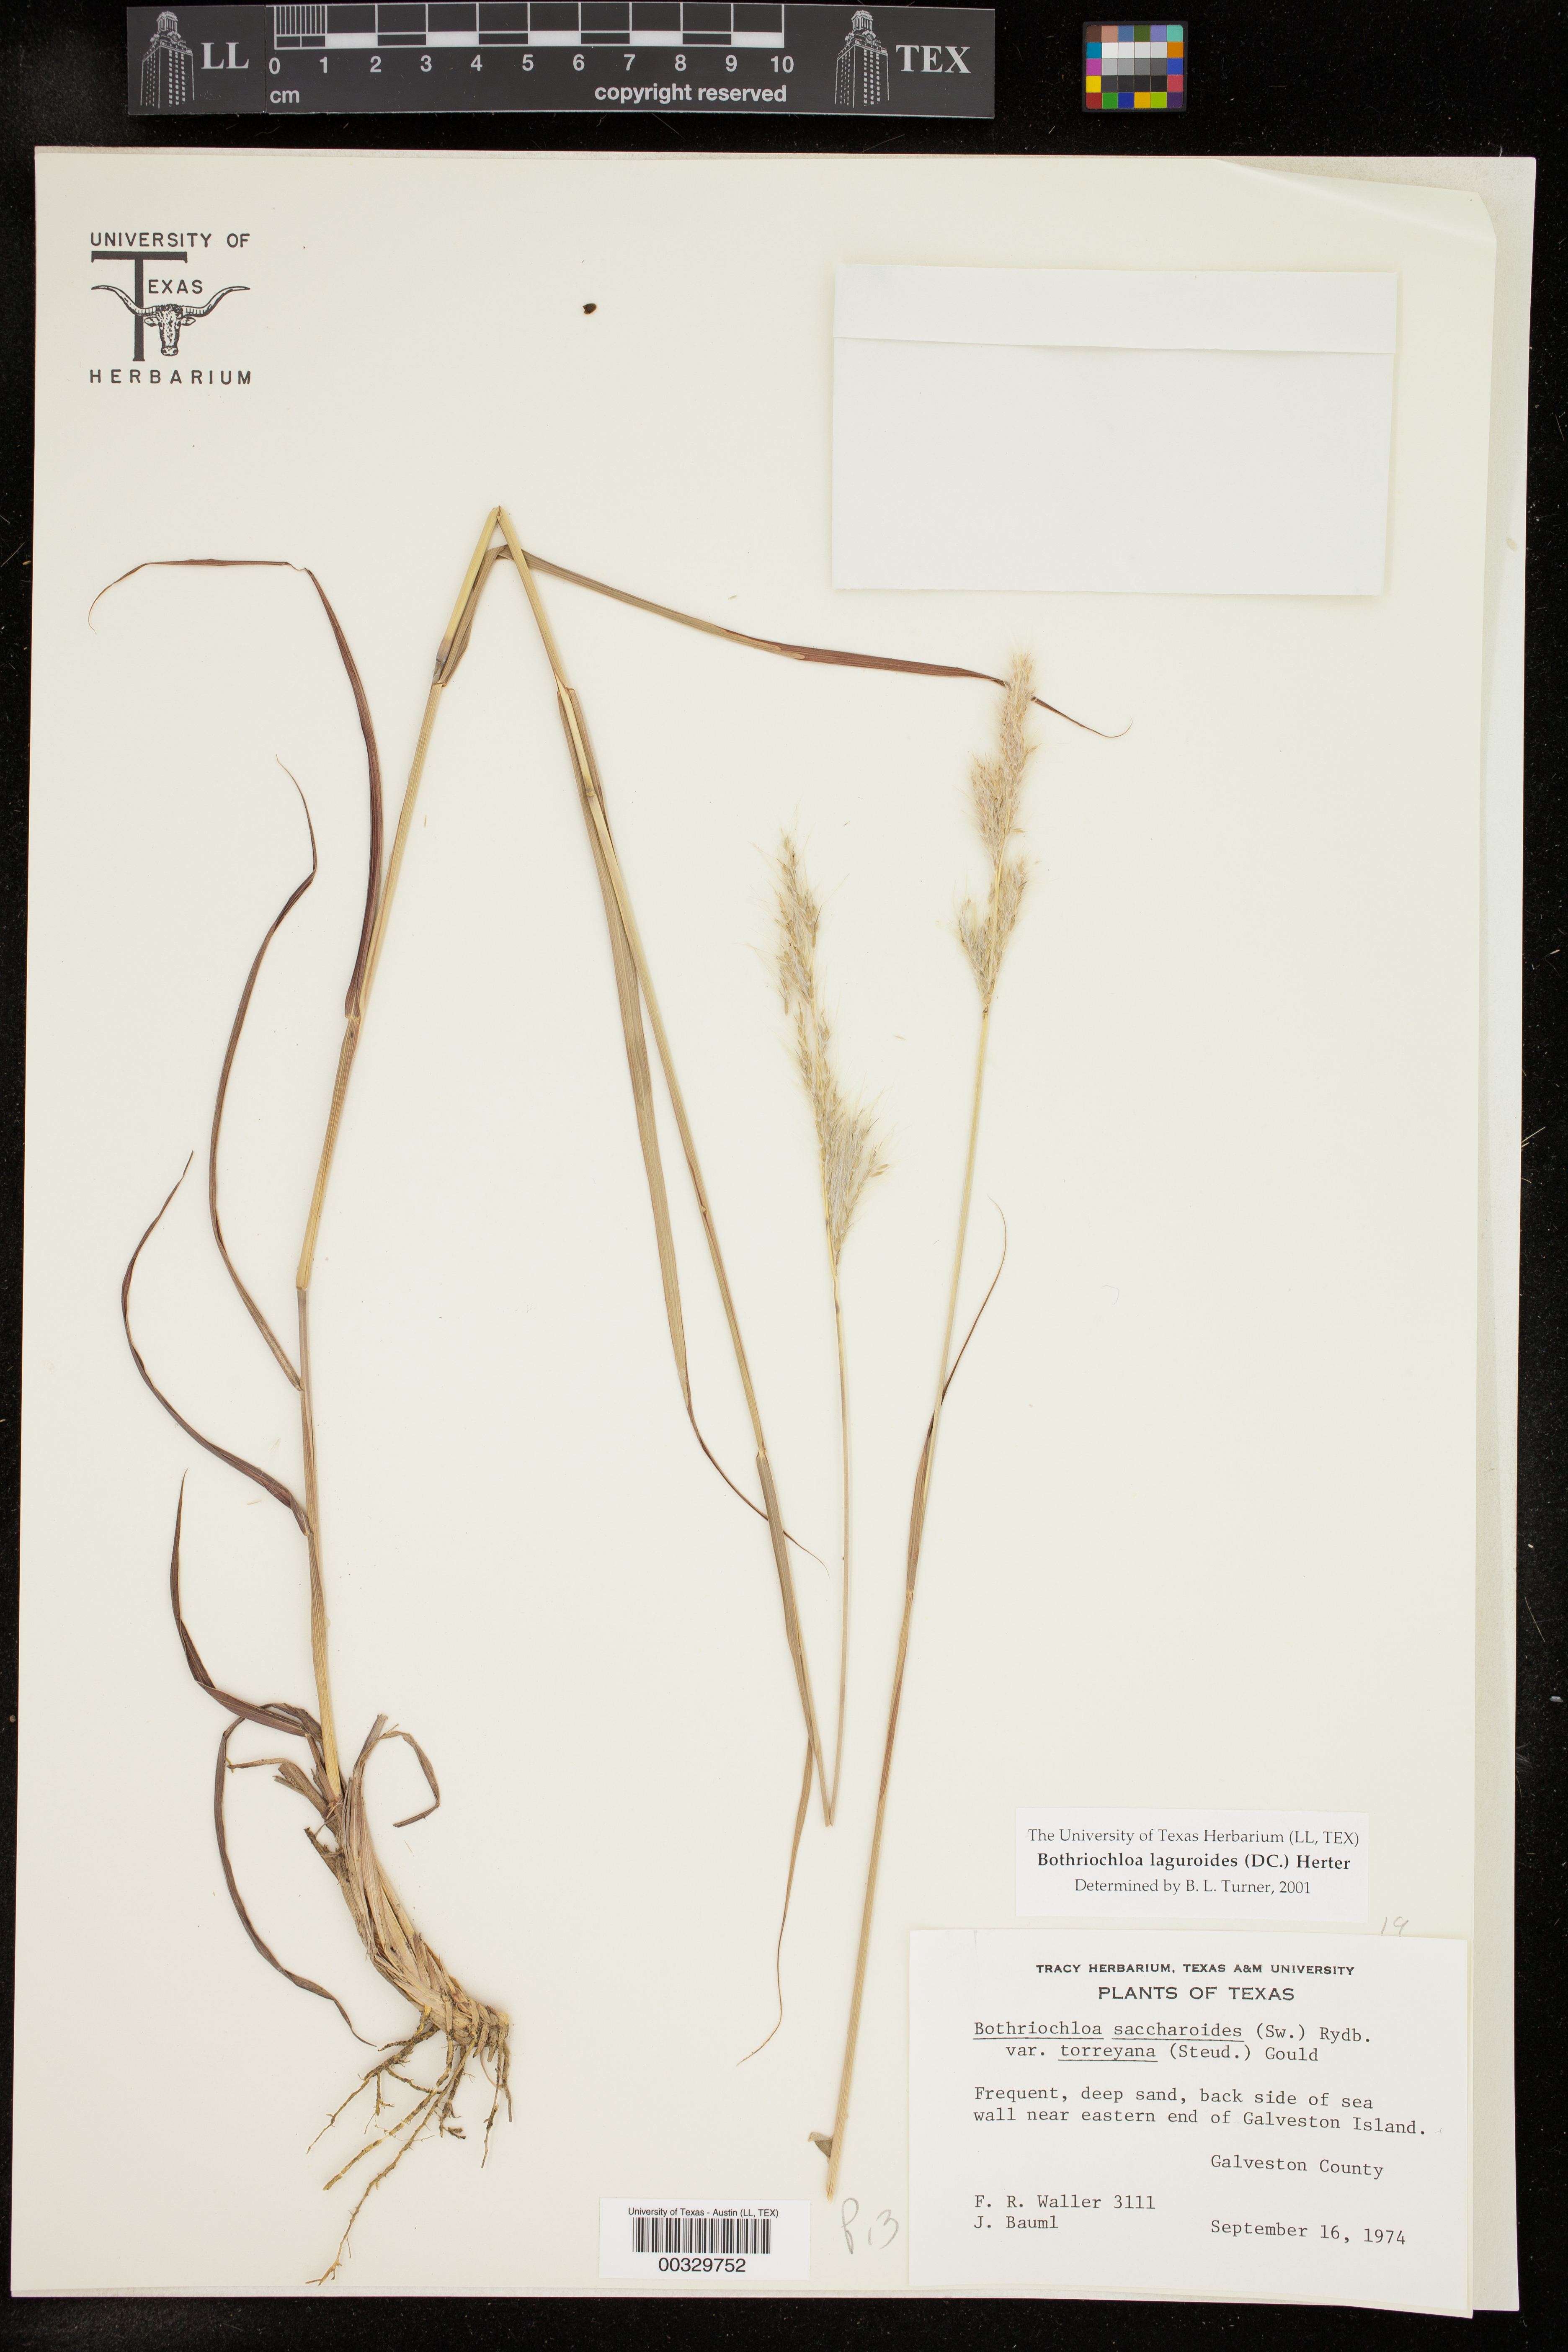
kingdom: Plantae
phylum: Tracheophyta
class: Liliopsida
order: Poales
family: Poaceae
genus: Bothriochloa
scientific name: Bothriochloa laguroides
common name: Silver bluestem
